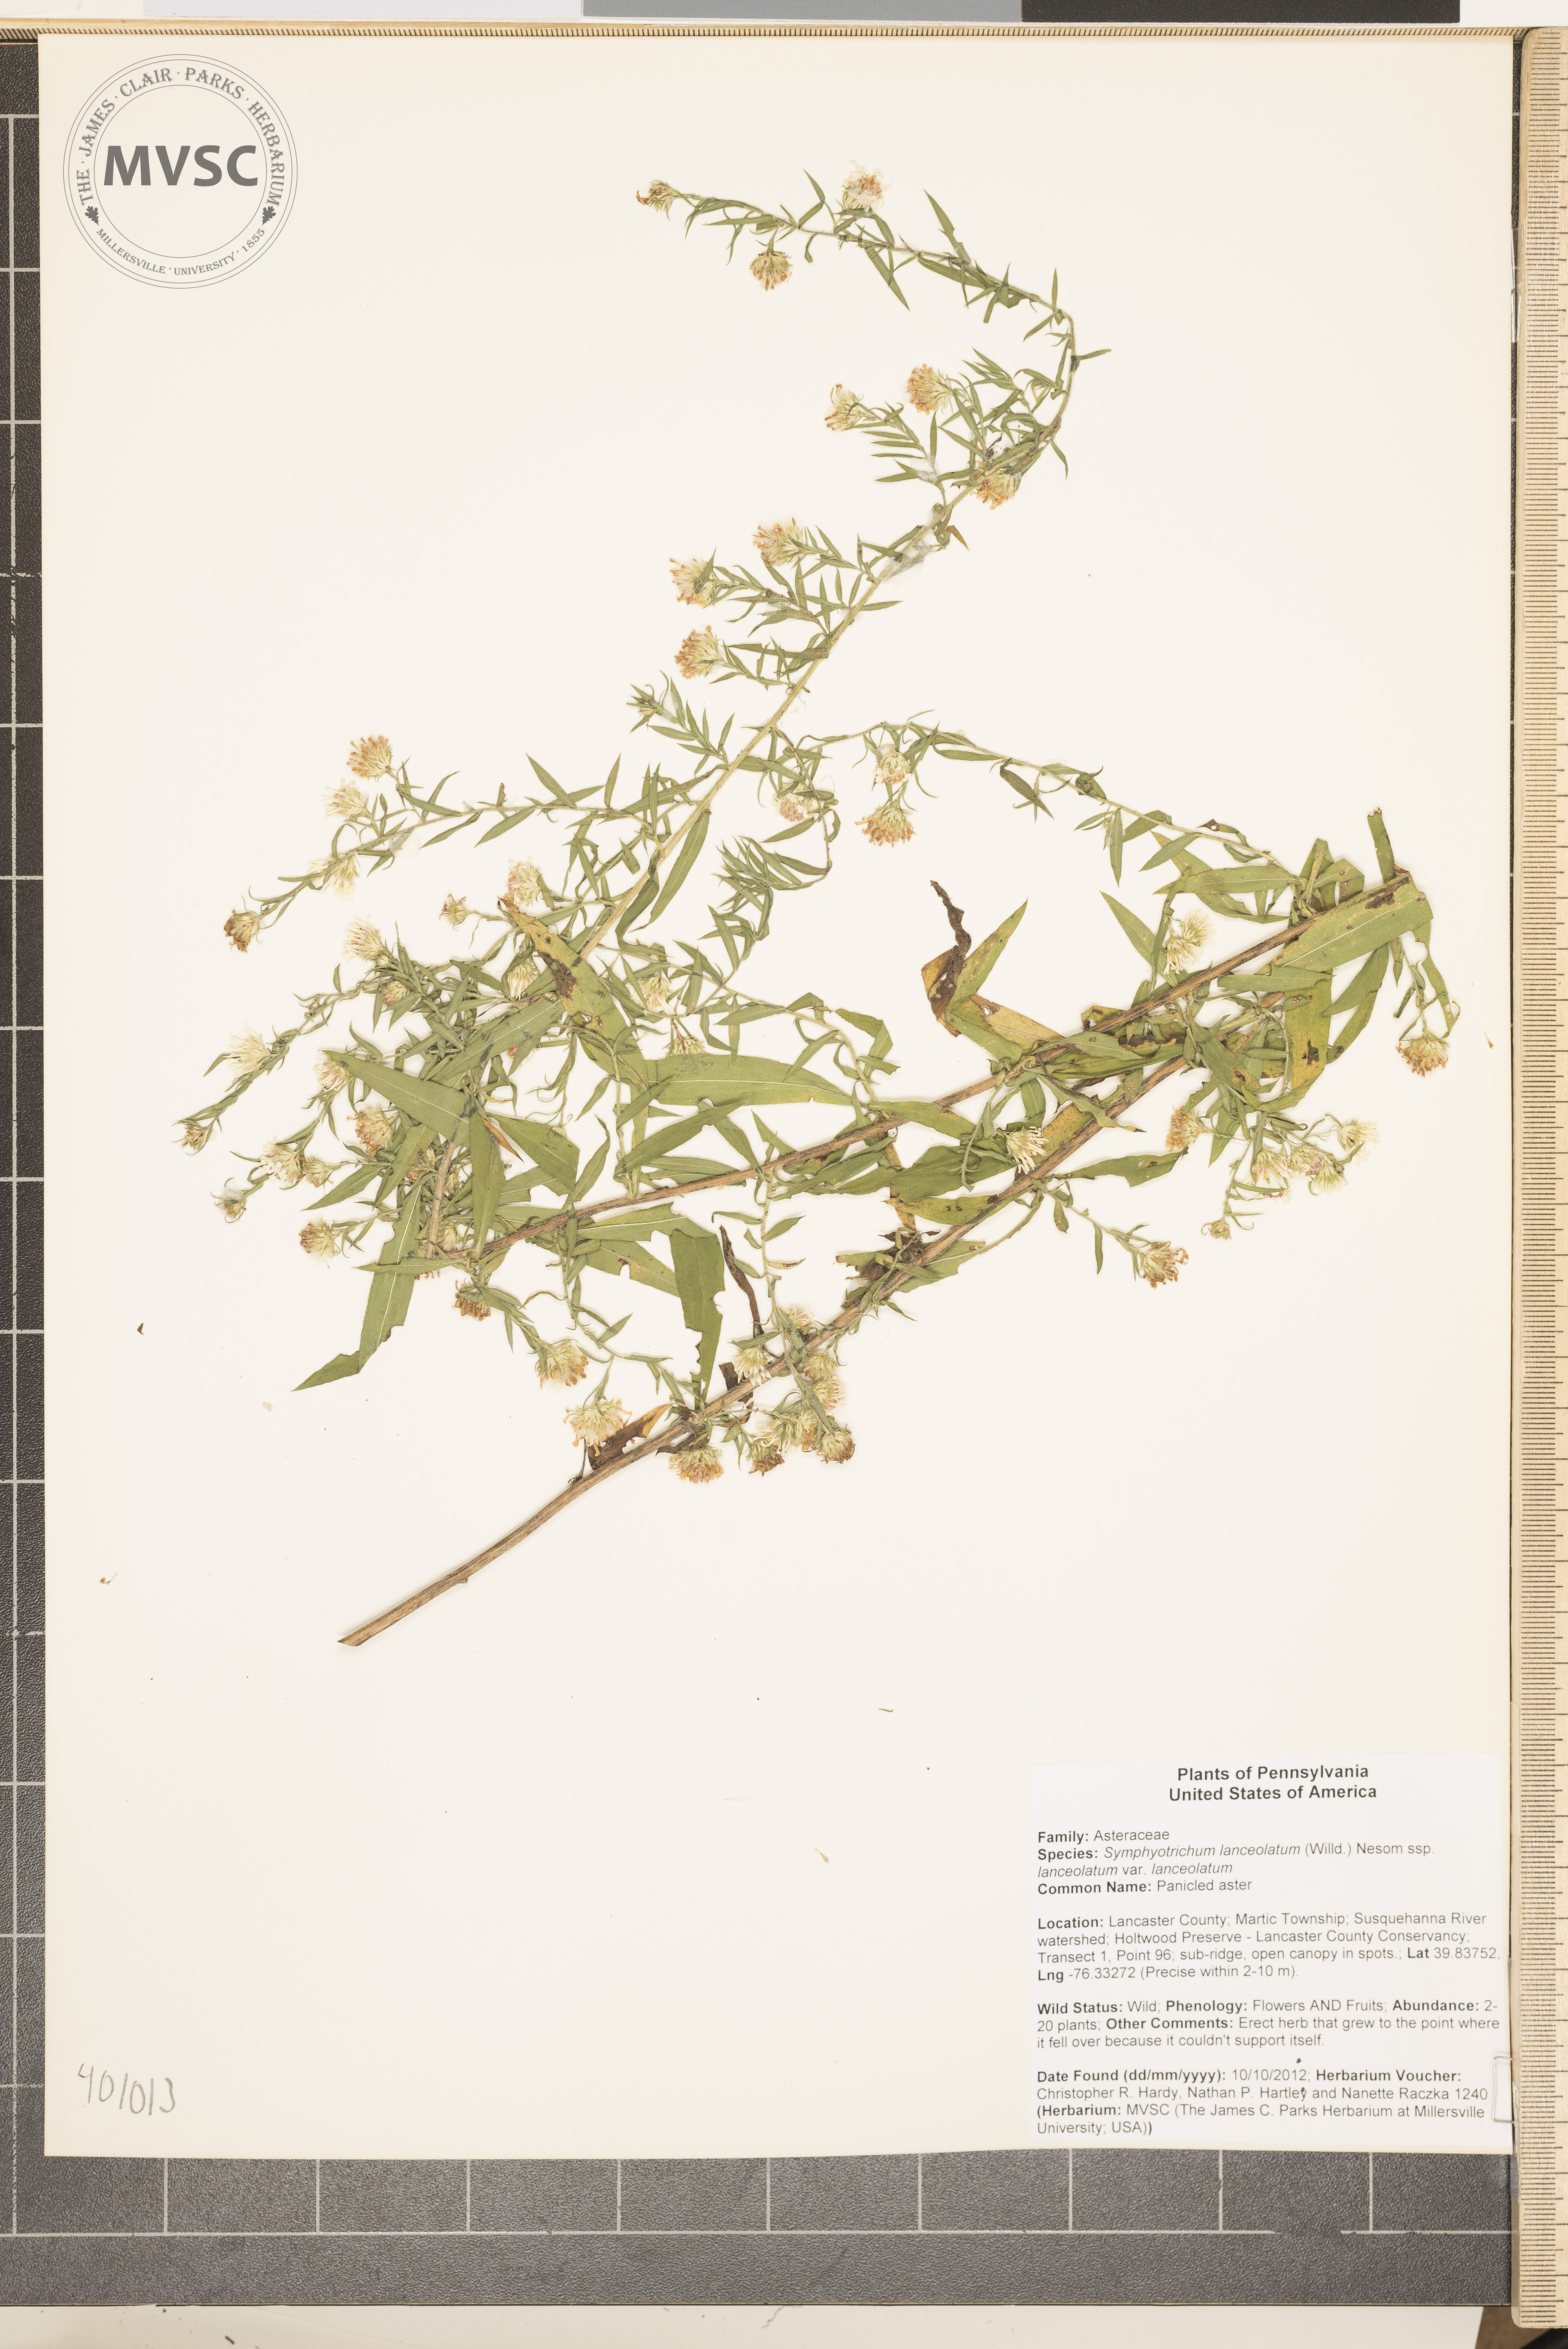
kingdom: Plantae
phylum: Tracheophyta
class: Magnoliopsida
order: Asterales
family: Asteraceae
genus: Symphyotrichum
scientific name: Symphyotrichum lanceolatum
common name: Panicled aster
